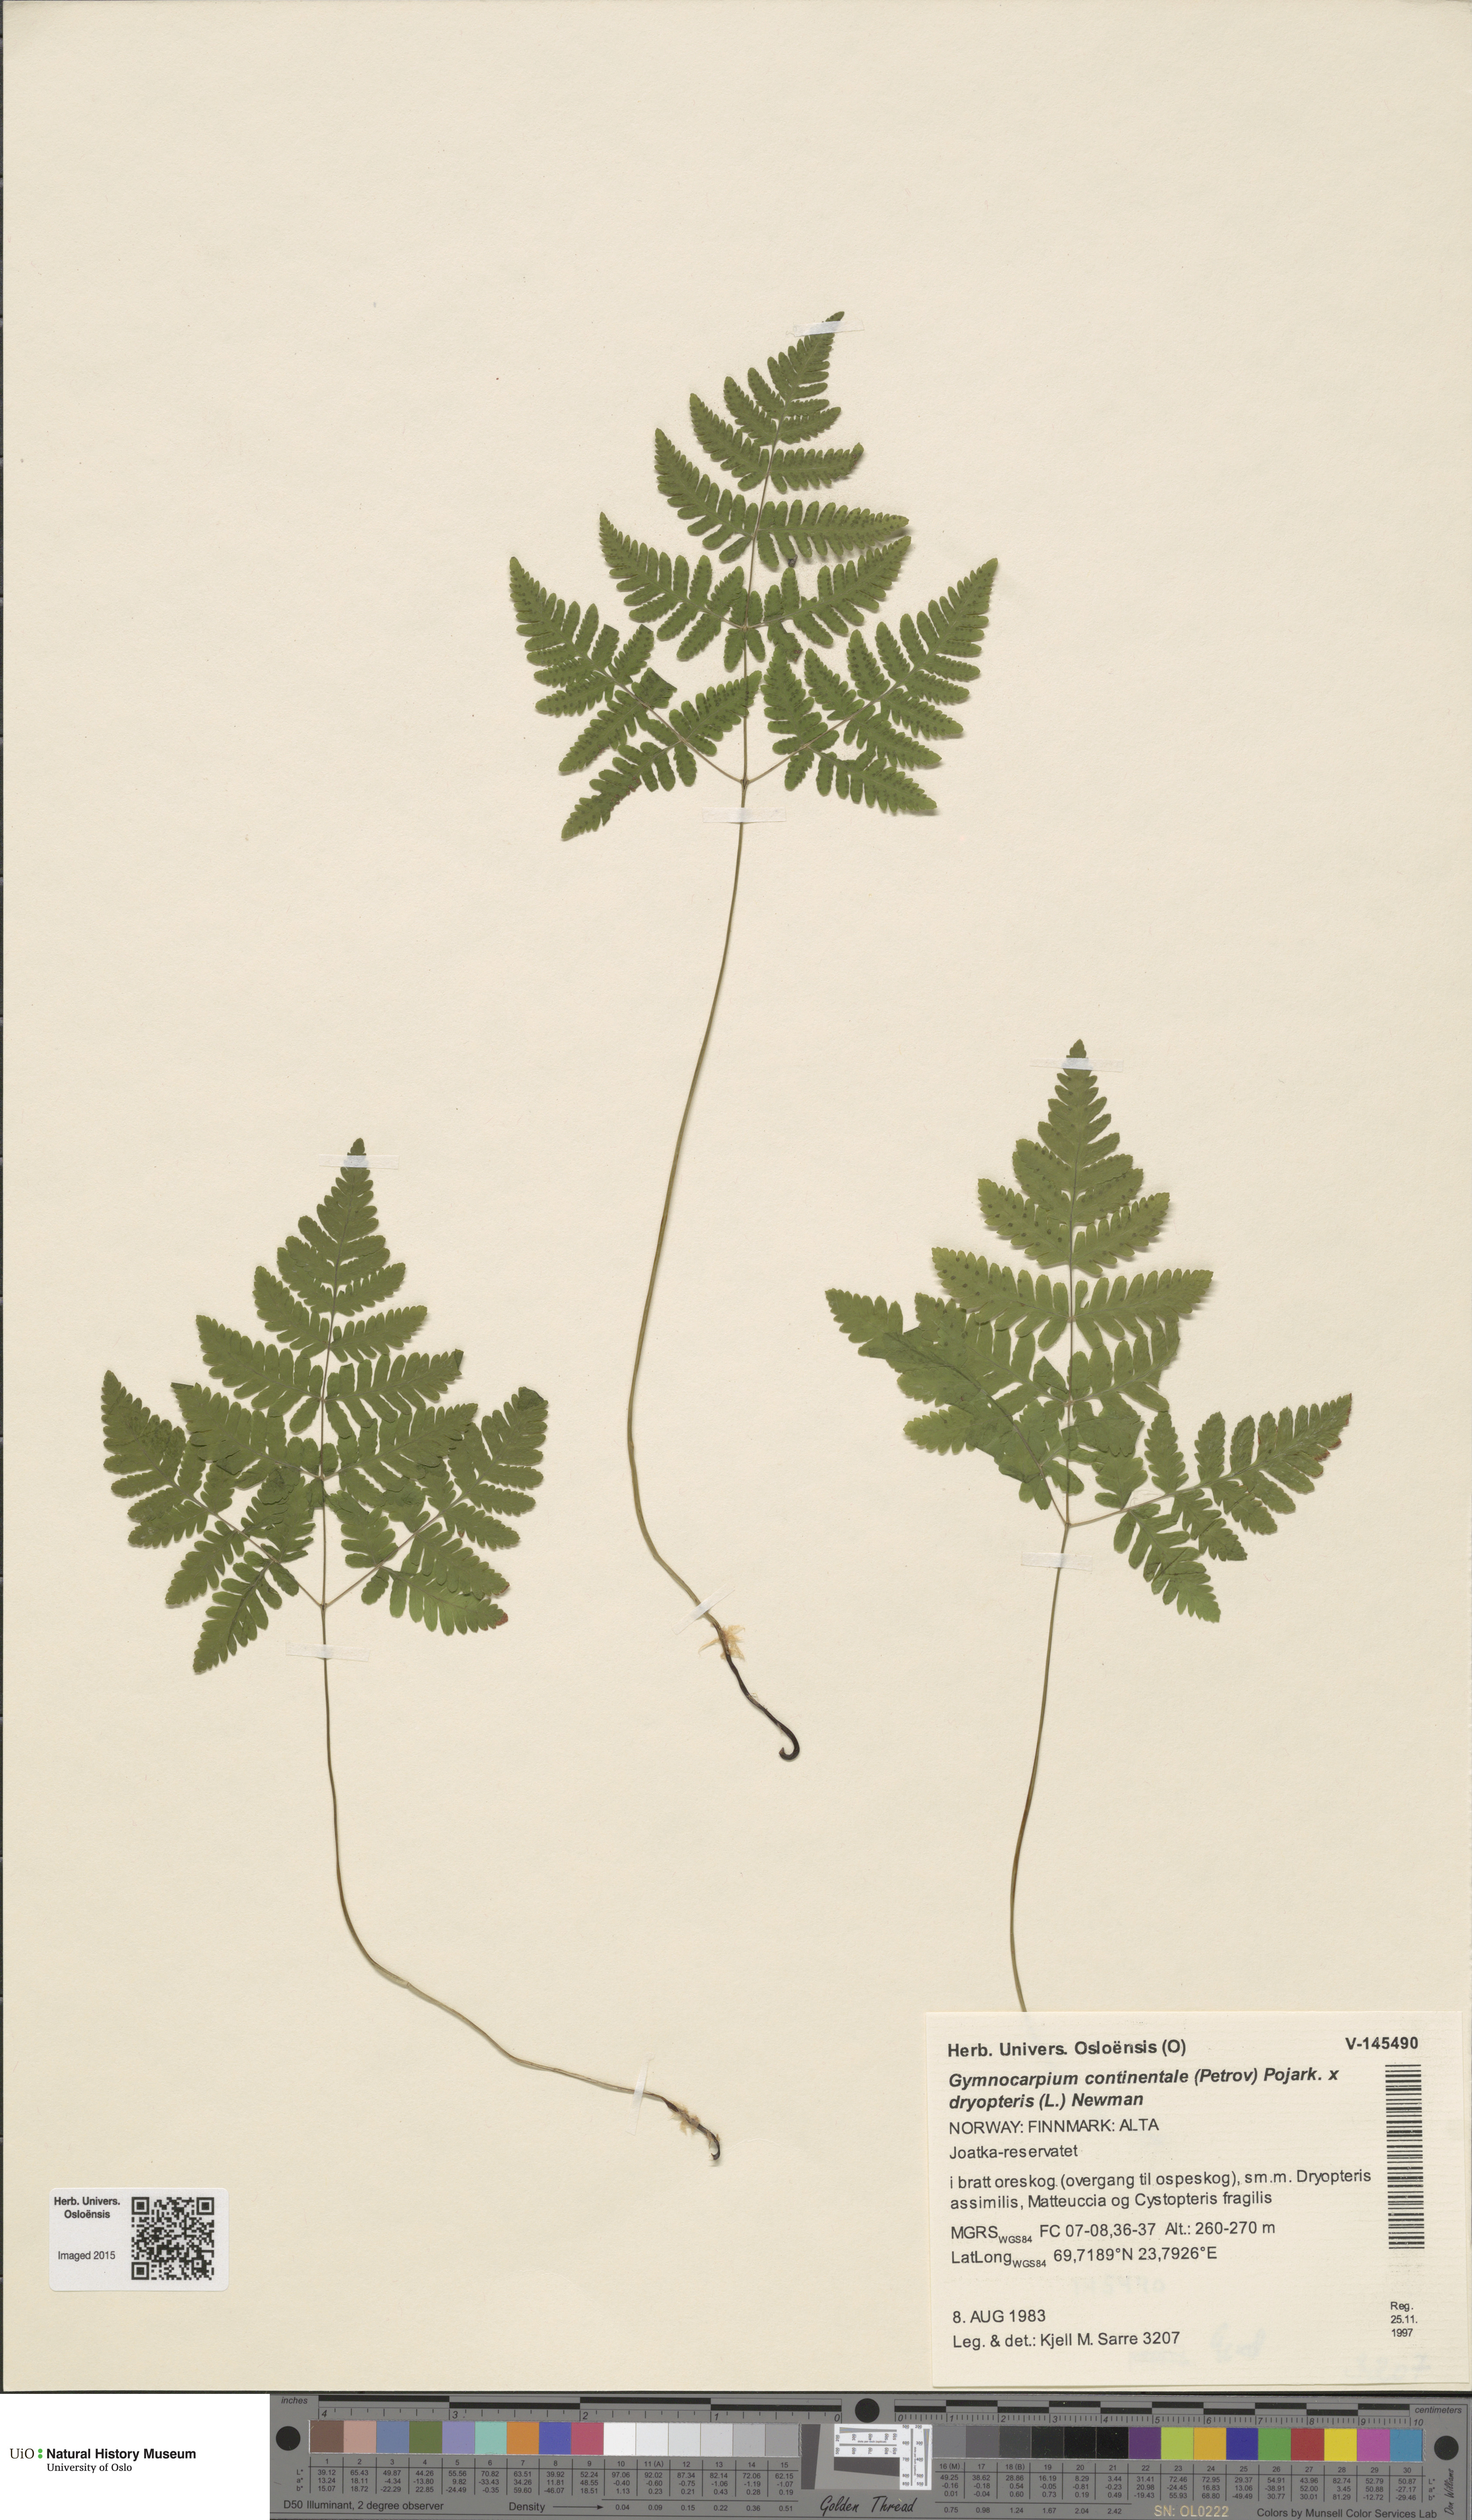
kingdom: Plantae
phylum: Tracheophyta
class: Polypodiopsida
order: Polypodiales
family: Cystopteridaceae
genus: Gymnocarpium
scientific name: Gymnocarpium
